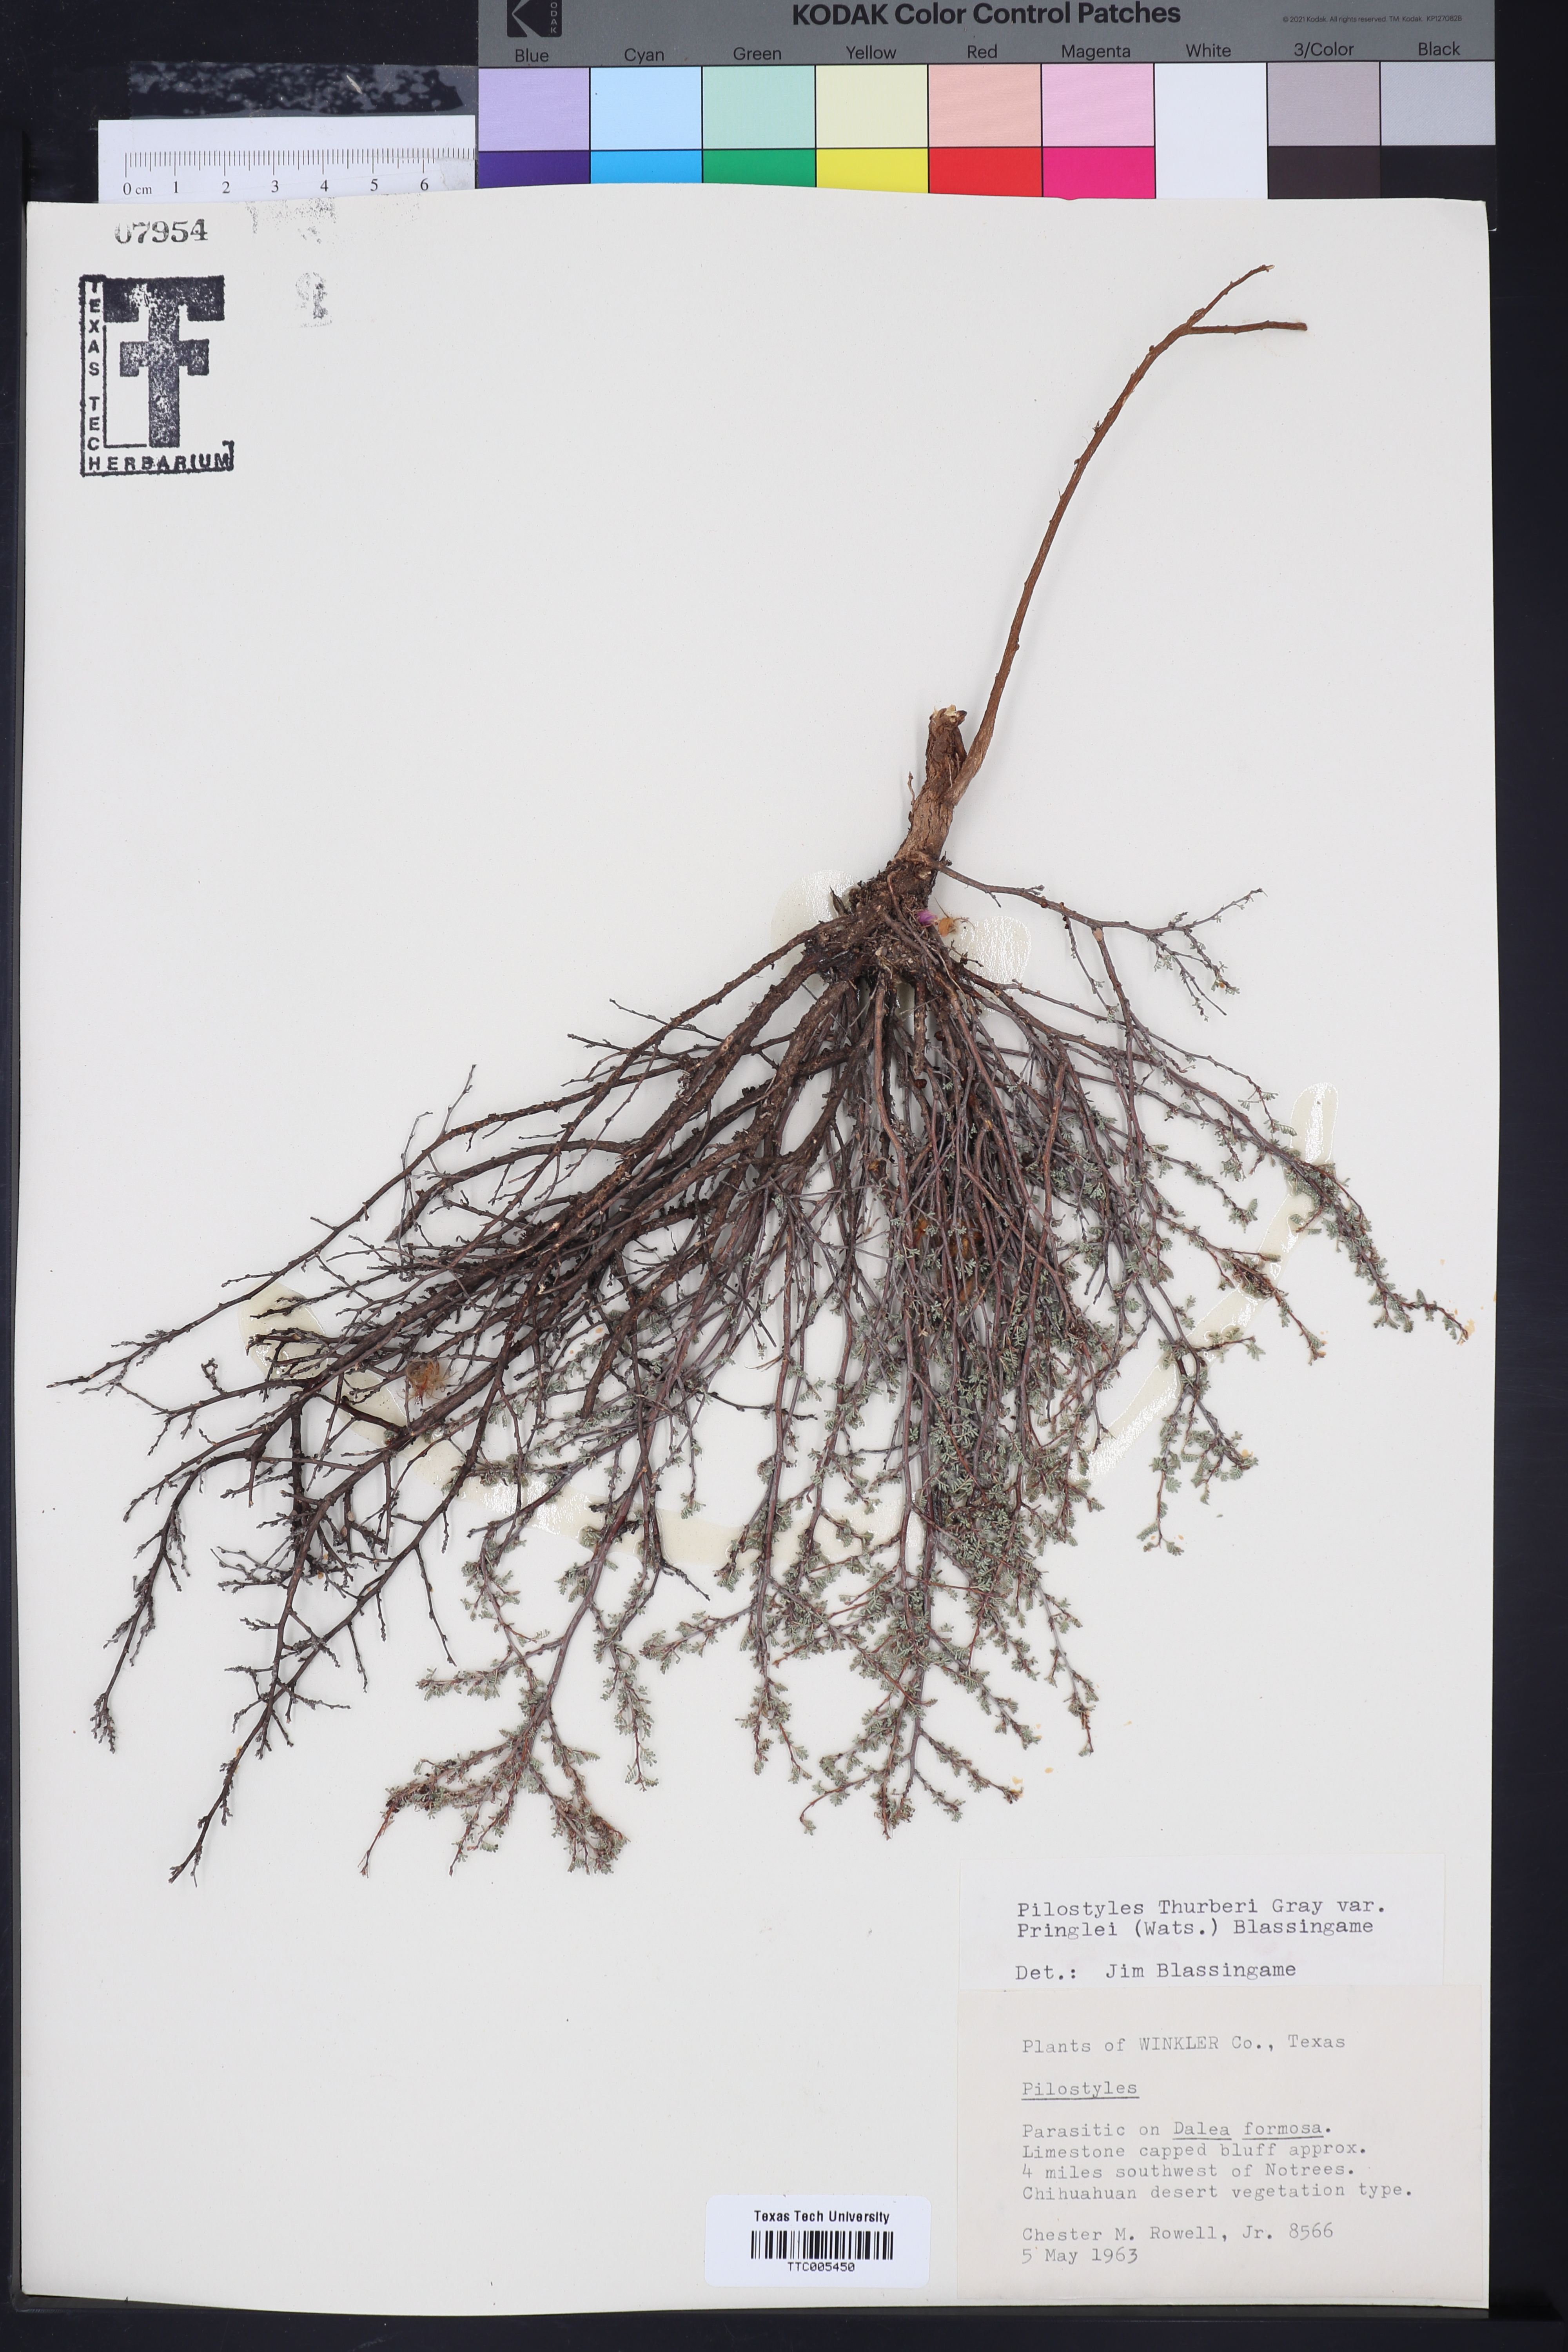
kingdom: Plantae
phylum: Tracheophyta
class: Magnoliopsida
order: Cucurbitales
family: Apodanthaceae
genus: Pilostyles
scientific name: Pilostyles thurberi
